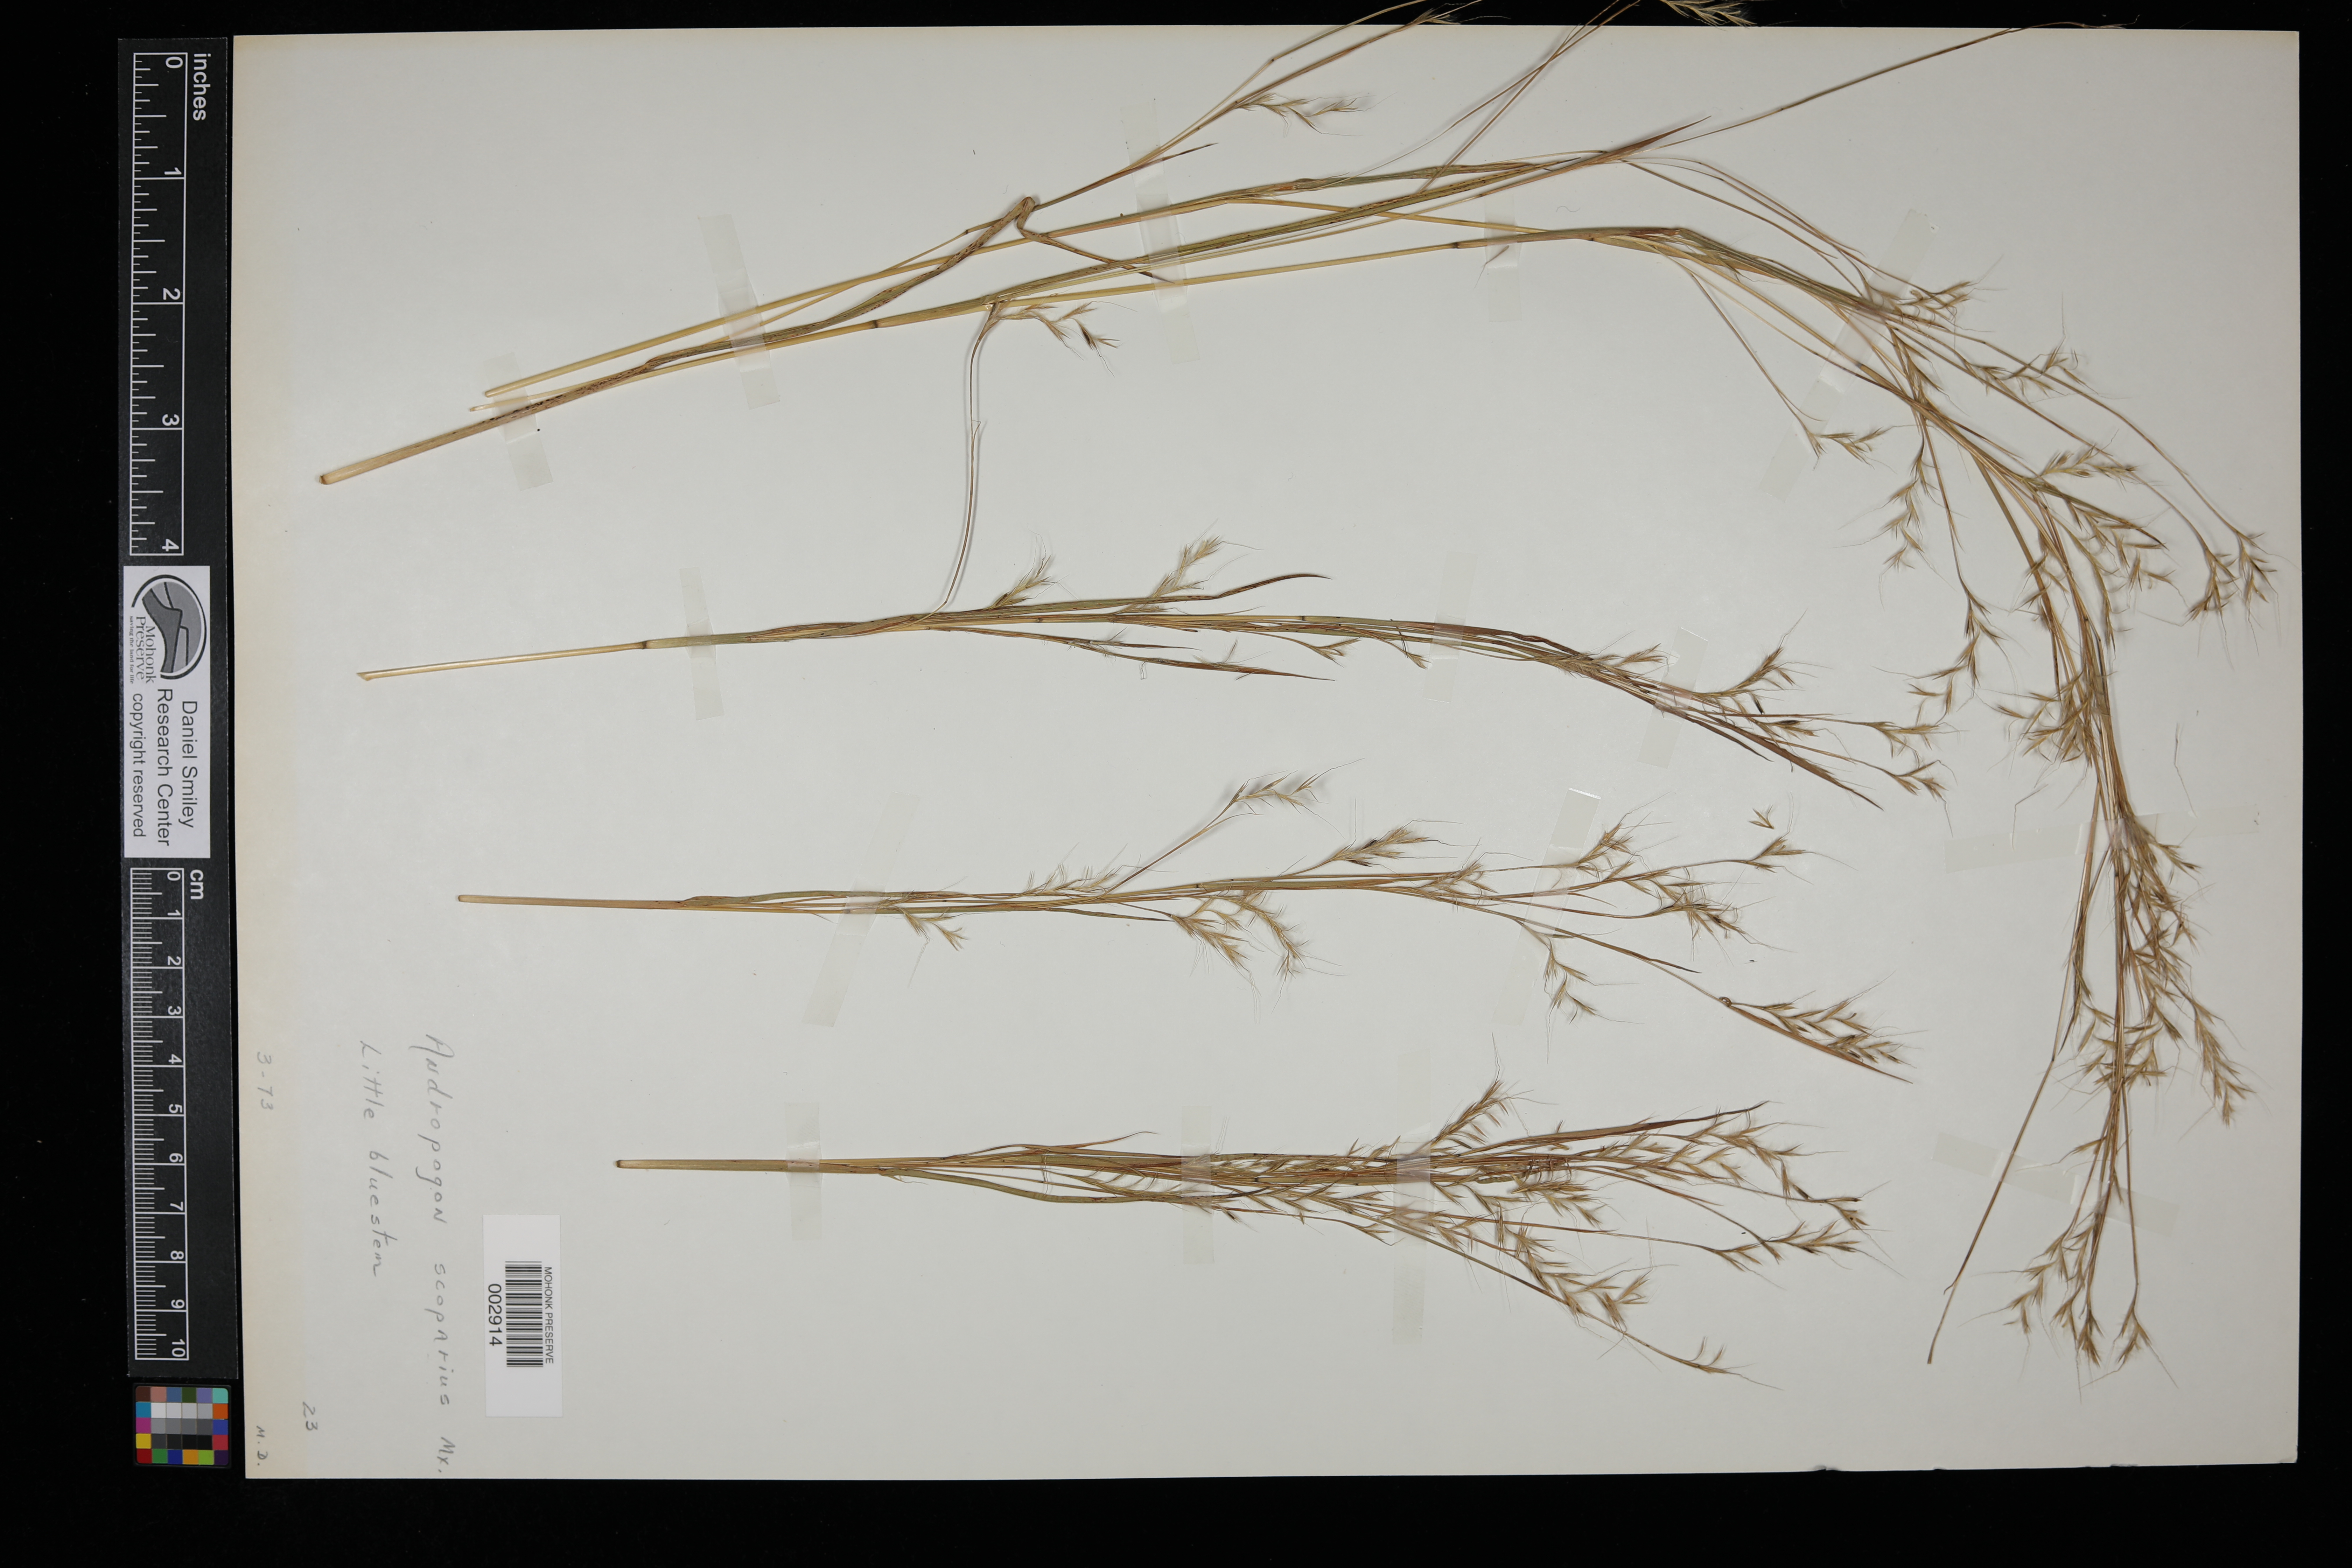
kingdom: Plantae
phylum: Tracheophyta
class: Liliopsida
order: Poales
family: Poaceae
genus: Schizachyrium
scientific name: Schizachyrium scoparium
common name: Little bluestem
